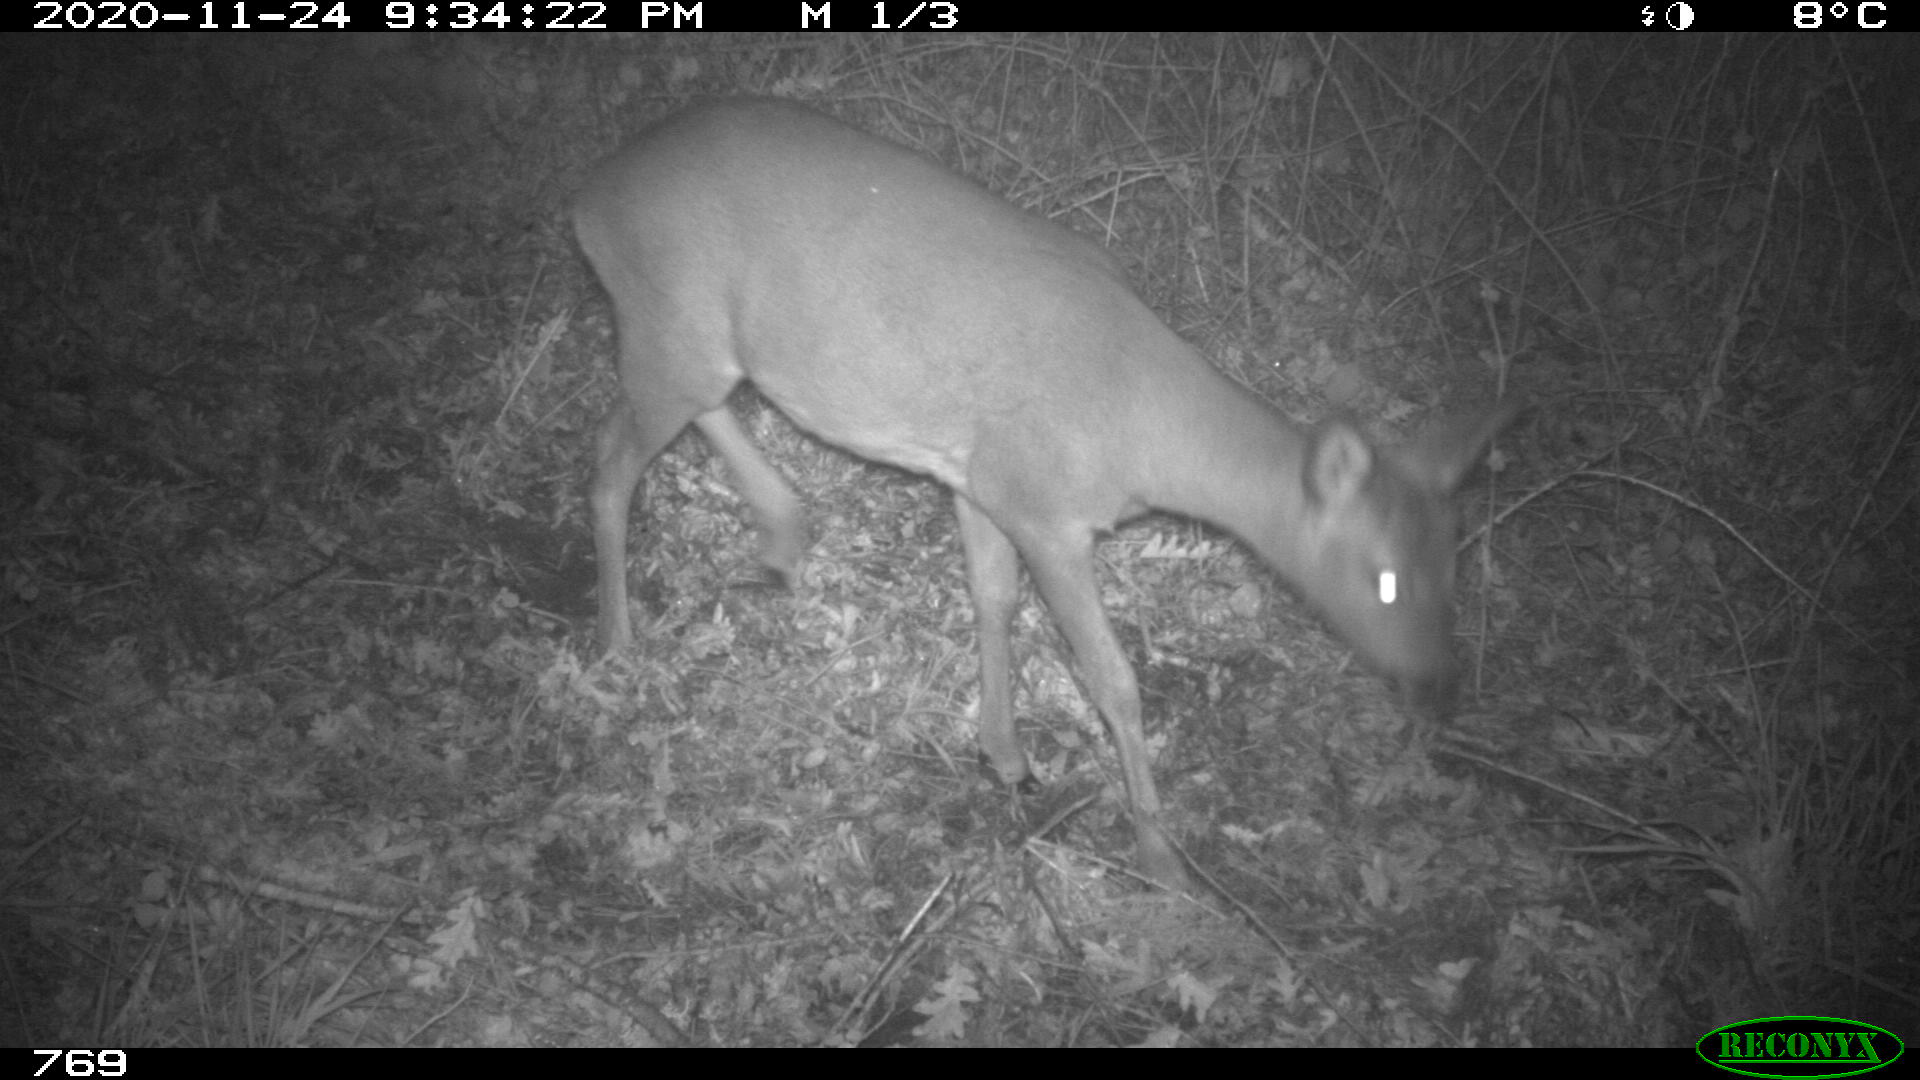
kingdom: Animalia
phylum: Chordata
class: Mammalia
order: Artiodactyla
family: Cervidae
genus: Capreolus
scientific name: Capreolus capreolus
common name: Western roe deer
